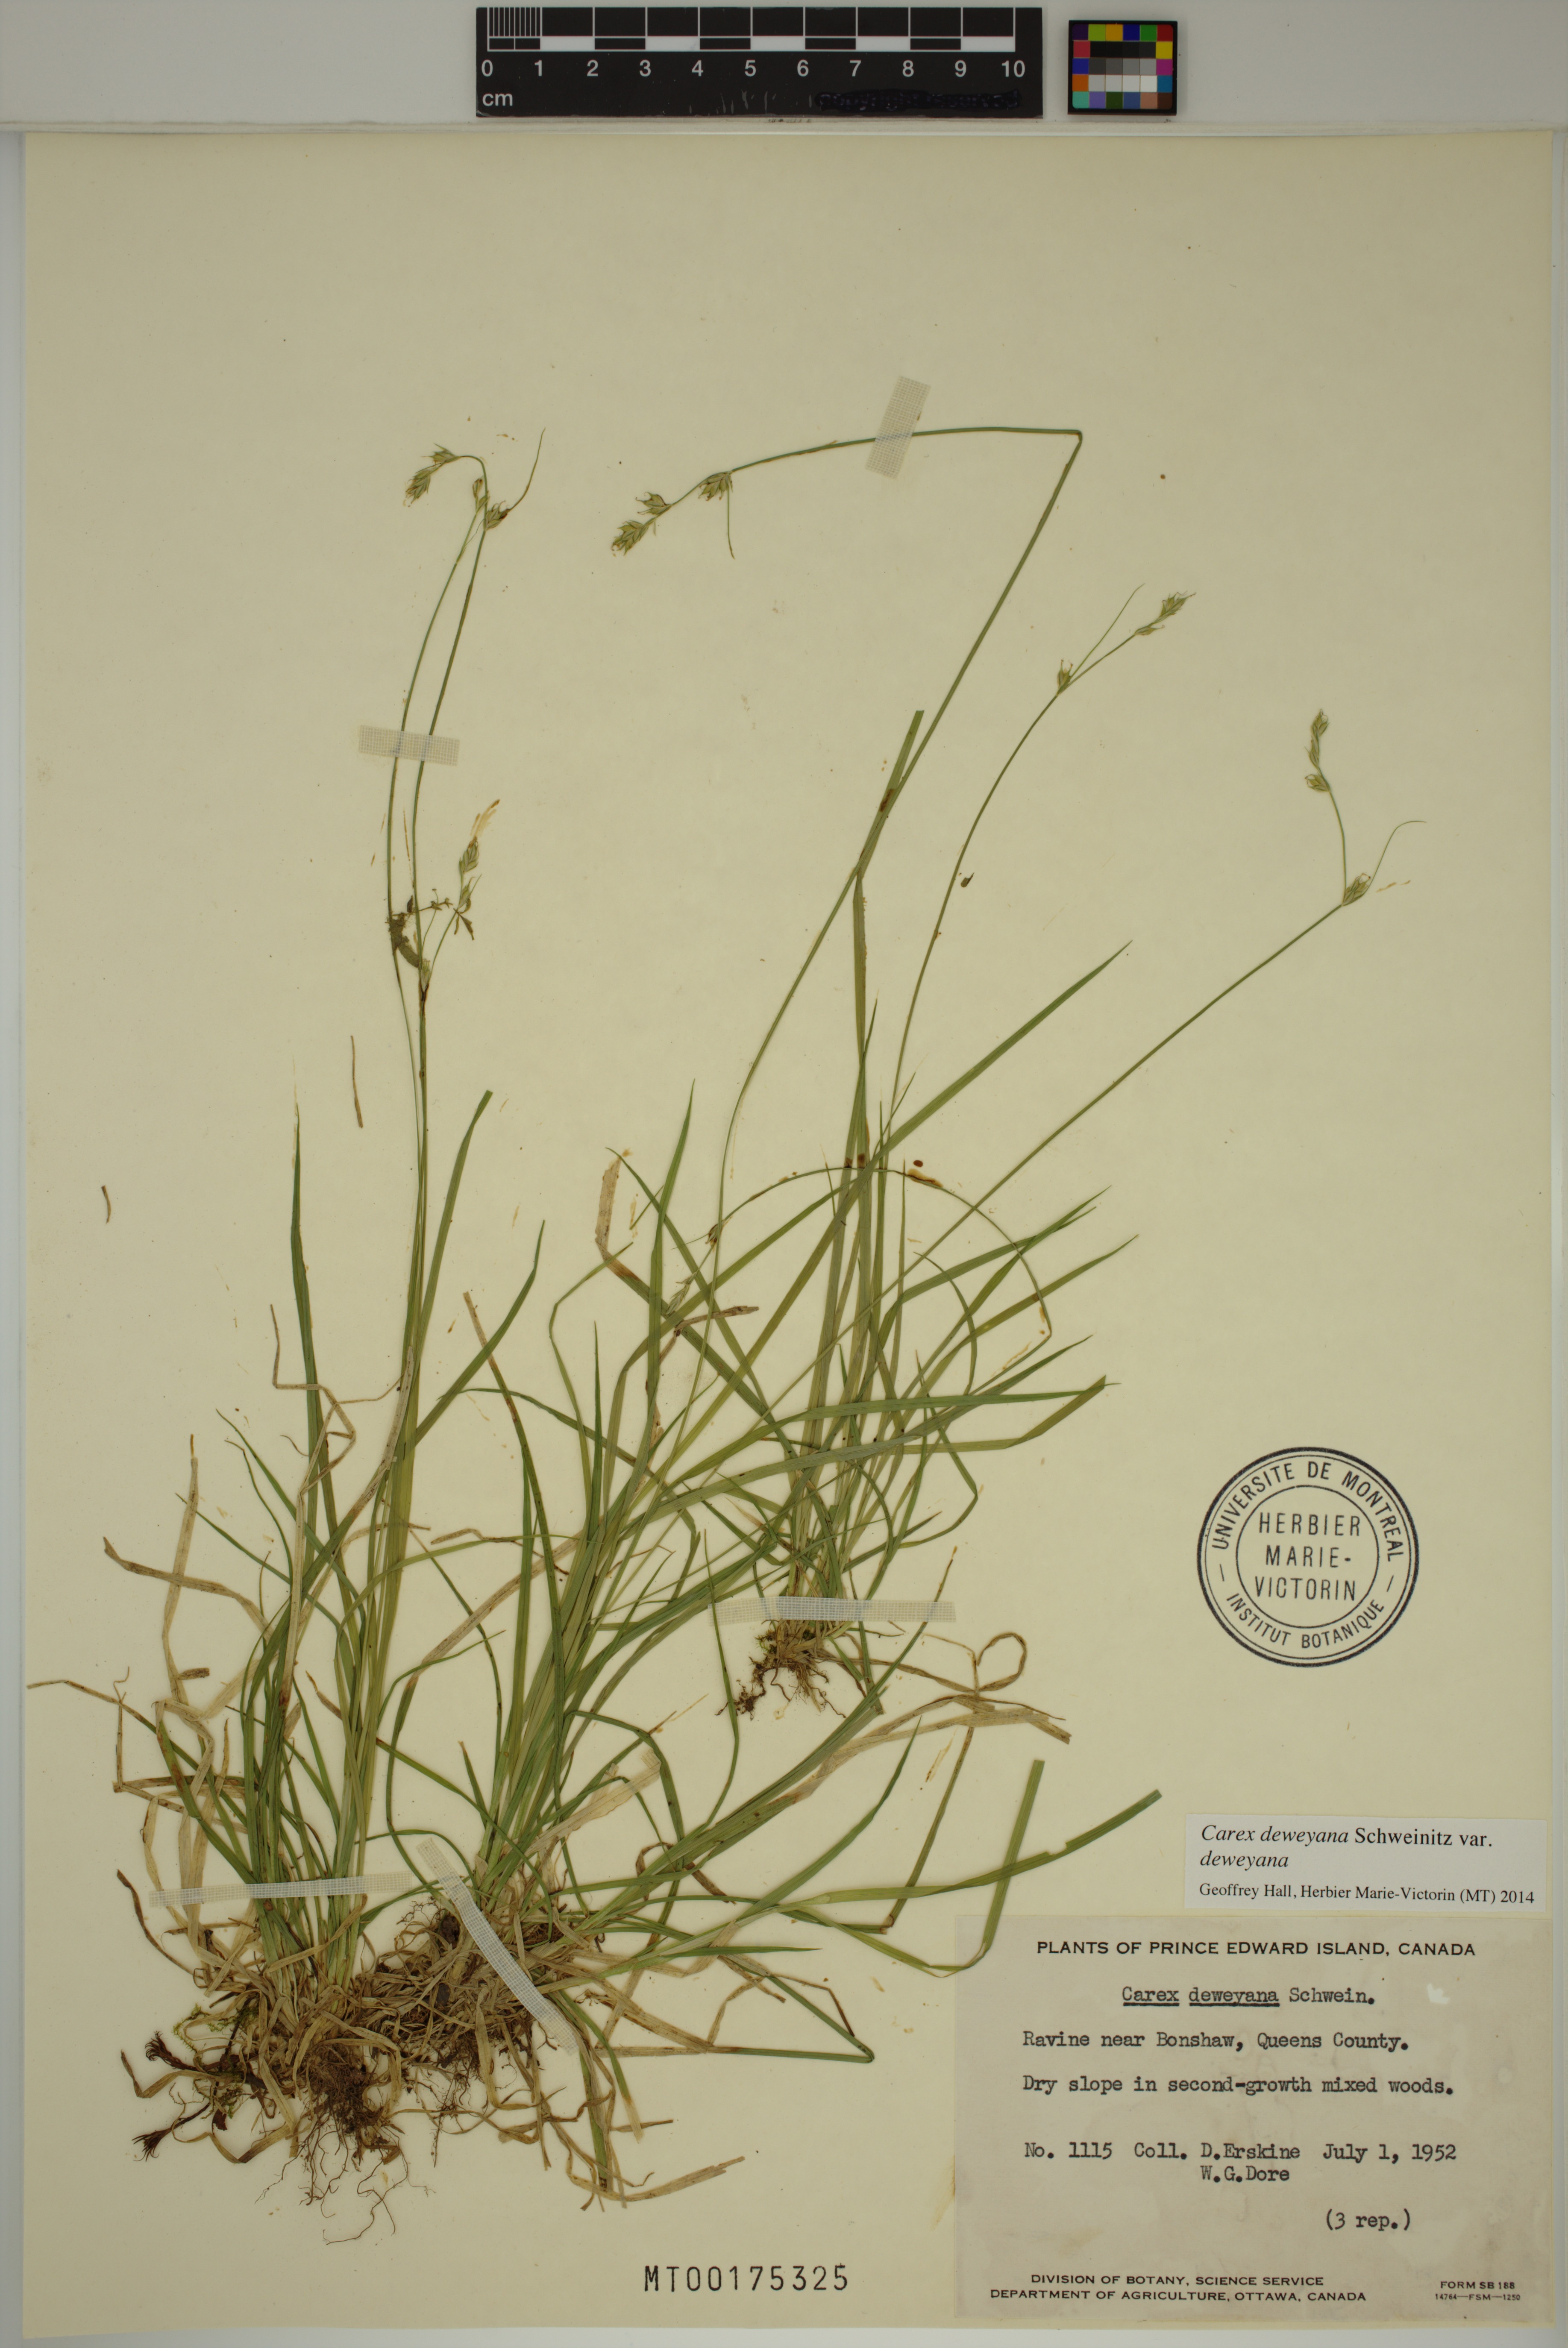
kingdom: Plantae
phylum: Tracheophyta
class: Liliopsida
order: Poales
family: Cyperaceae
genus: Carex
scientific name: Carex deweyana
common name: Dewey's sedge
